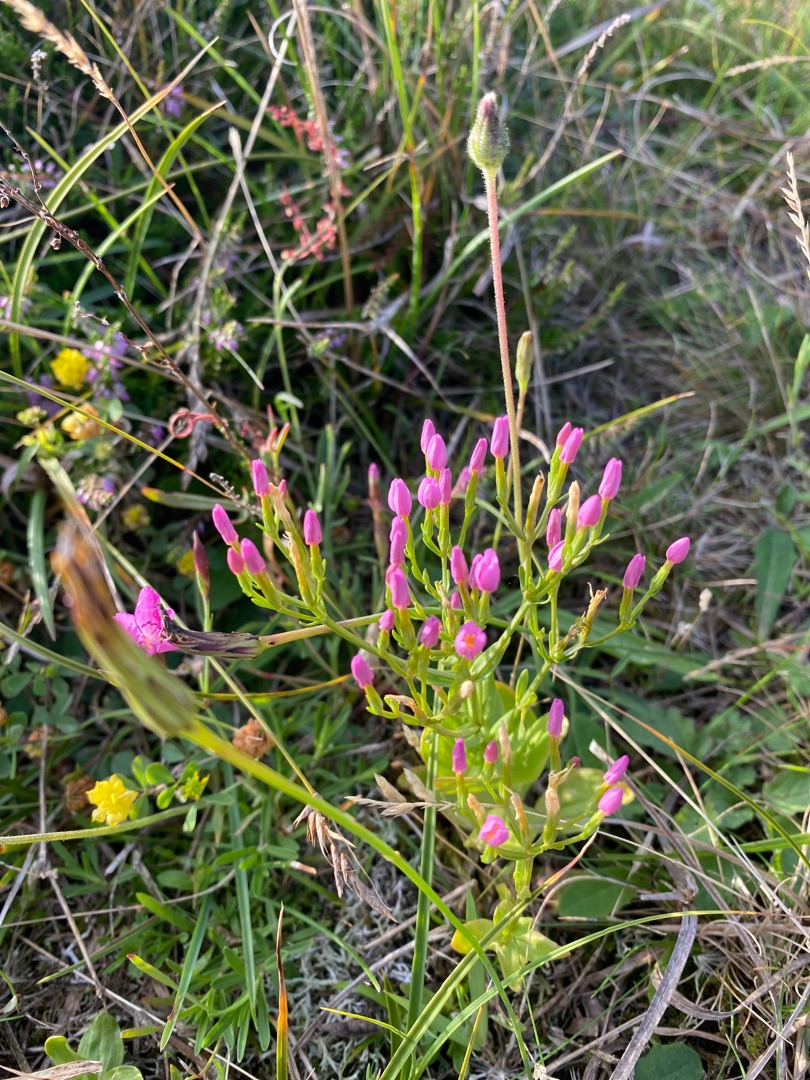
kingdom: Plantae
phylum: Tracheophyta
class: Magnoliopsida
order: Gentianales
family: Gentianaceae
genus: Centaurium
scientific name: Centaurium erythraea
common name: Mark-tusindgylden
